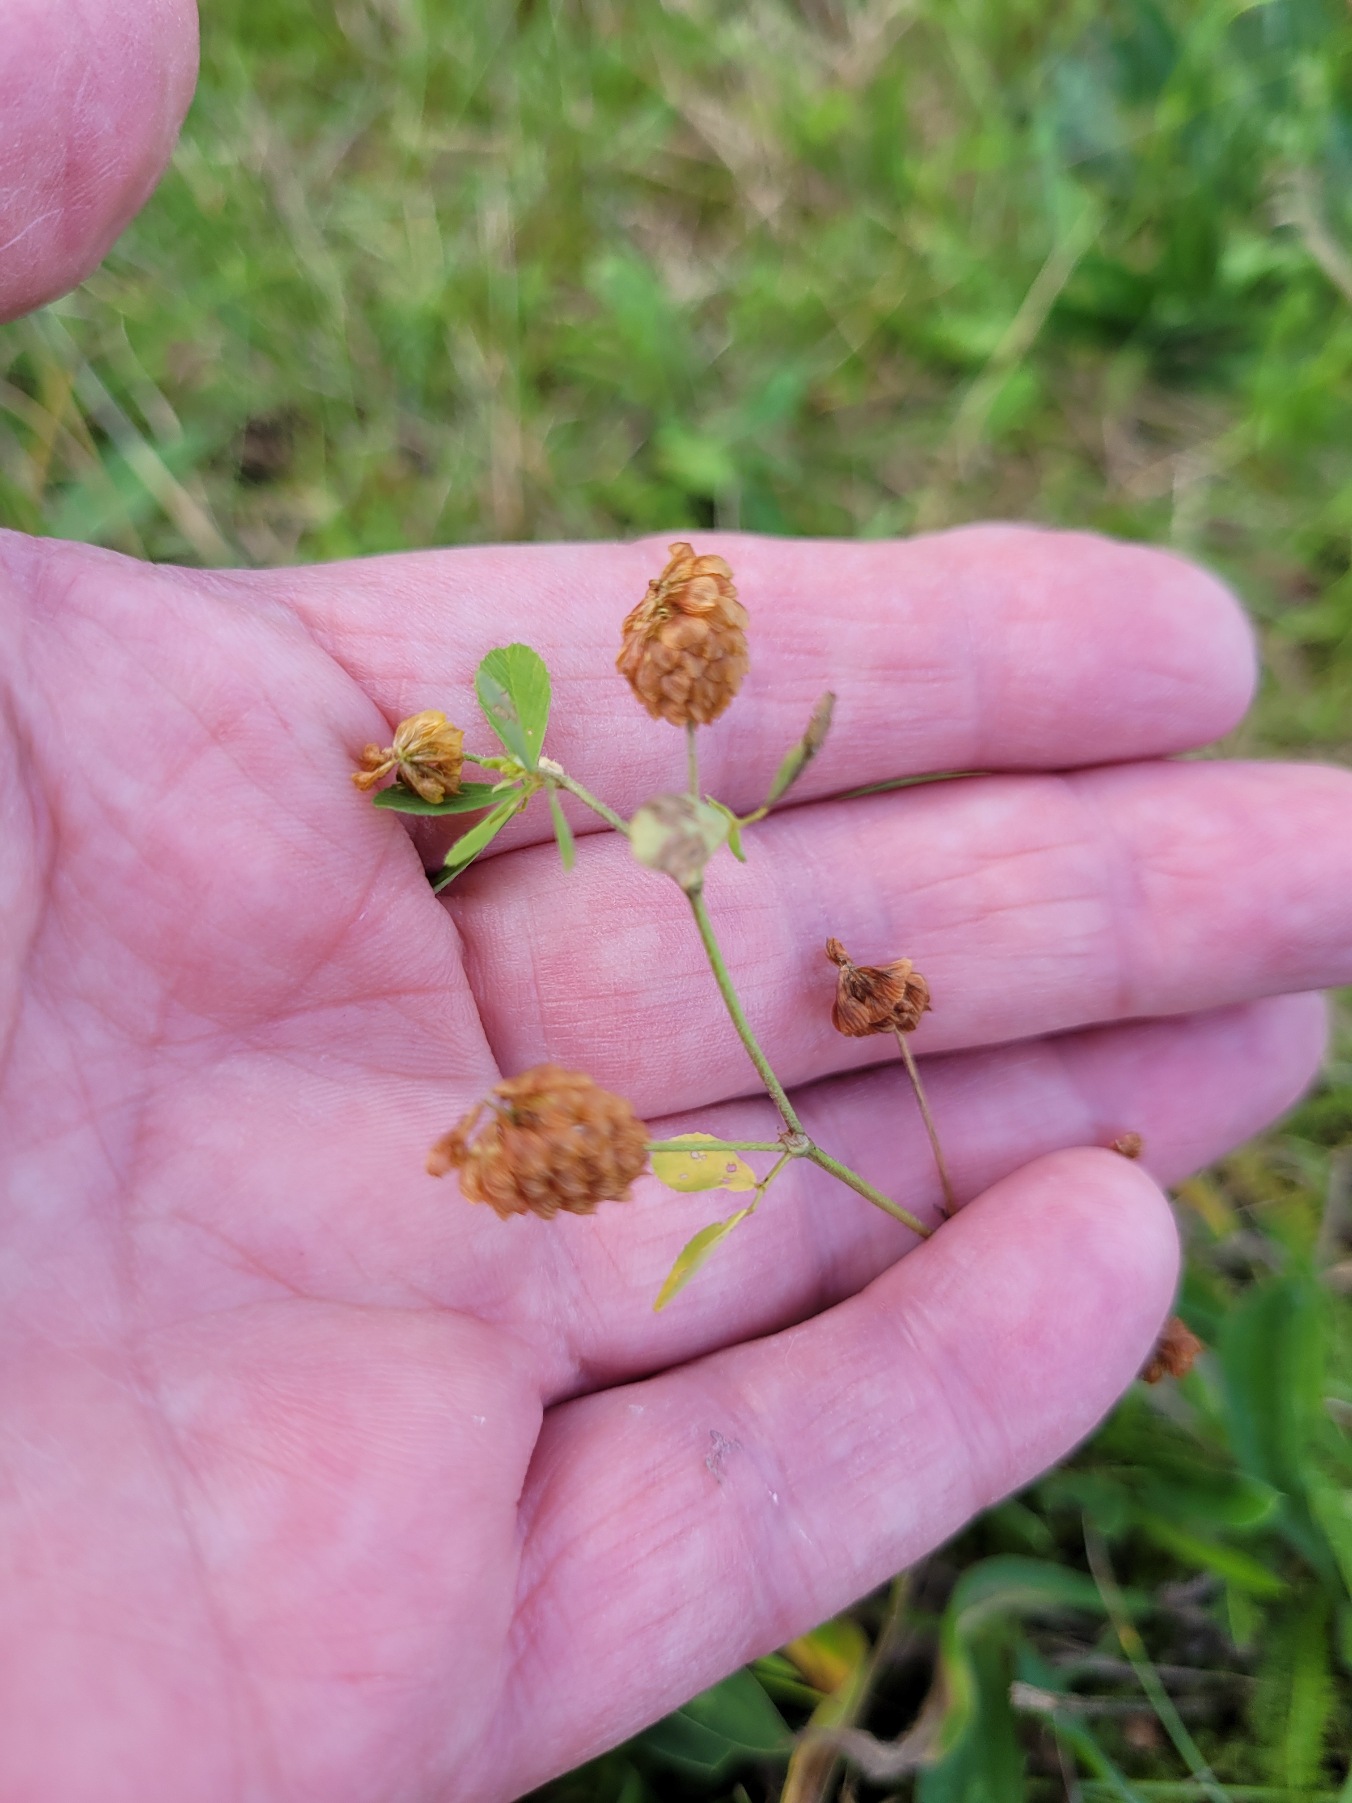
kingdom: Plantae
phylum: Tracheophyta
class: Magnoliopsida
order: Fabales
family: Fabaceae
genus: Trifolium
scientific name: Trifolium campestre
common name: Gul kløver
